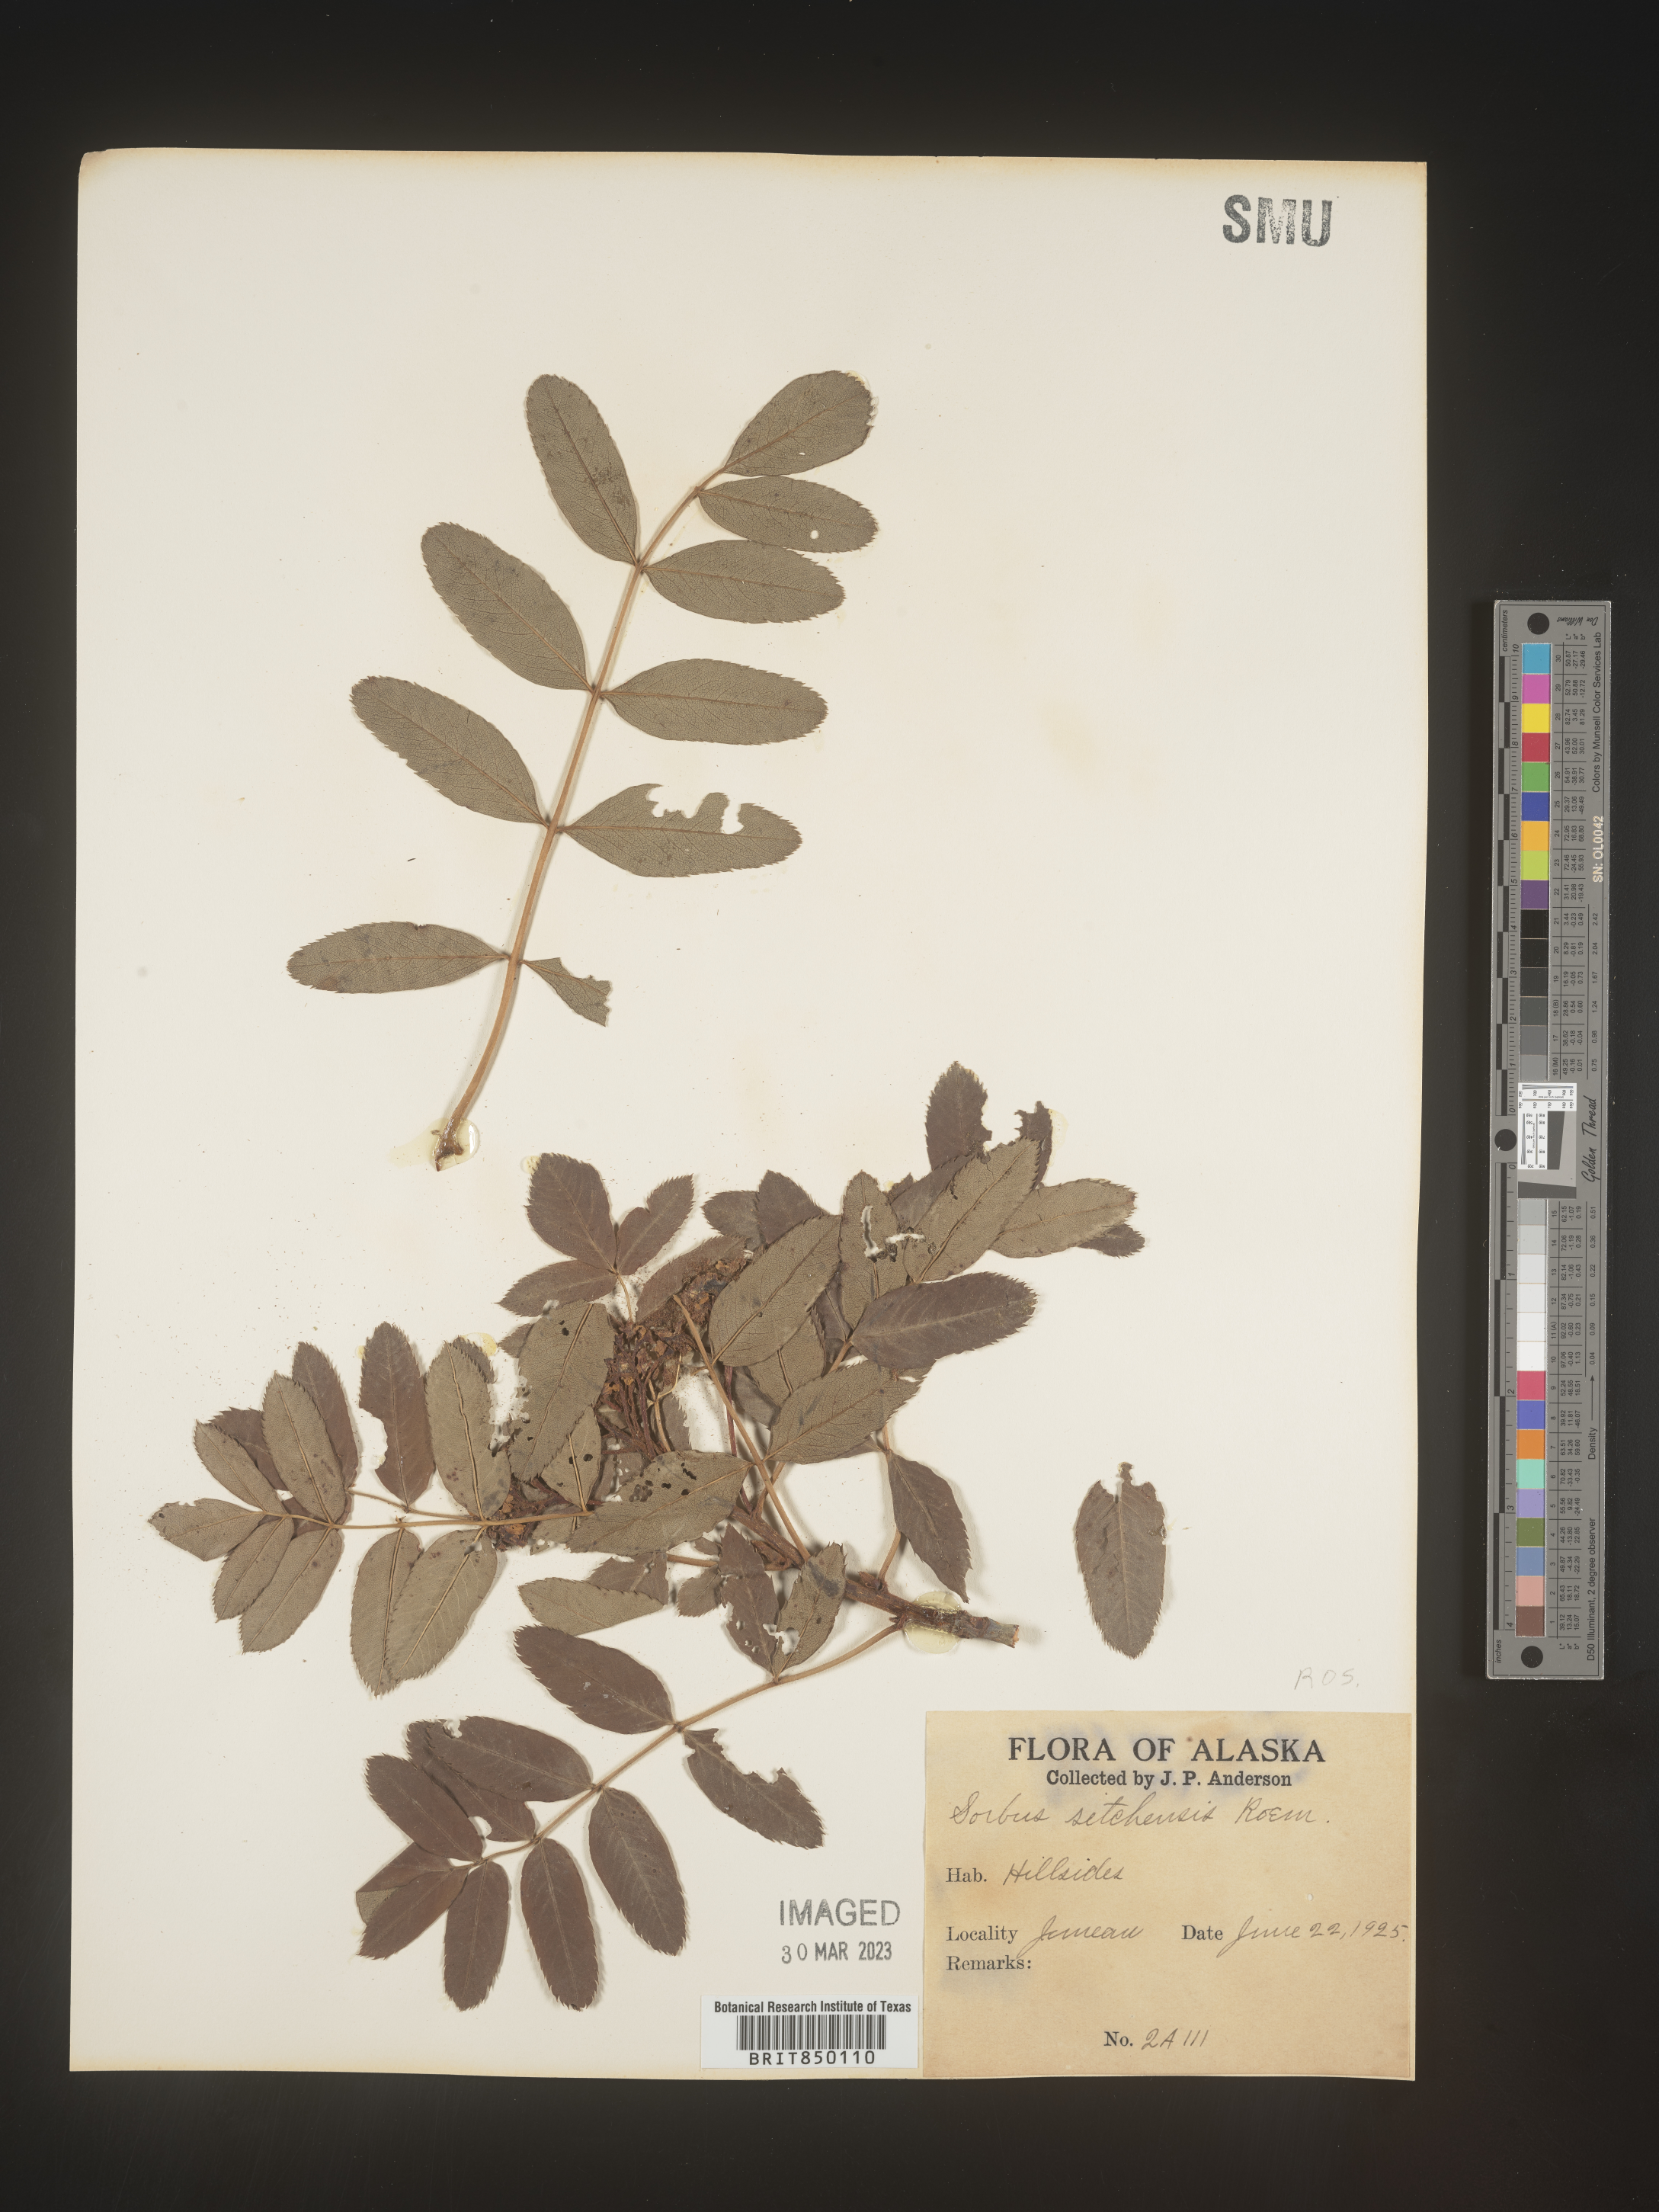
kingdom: Plantae
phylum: Tracheophyta
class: Magnoliopsida
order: Rosales
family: Rosaceae
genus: Sorbus
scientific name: Sorbus
